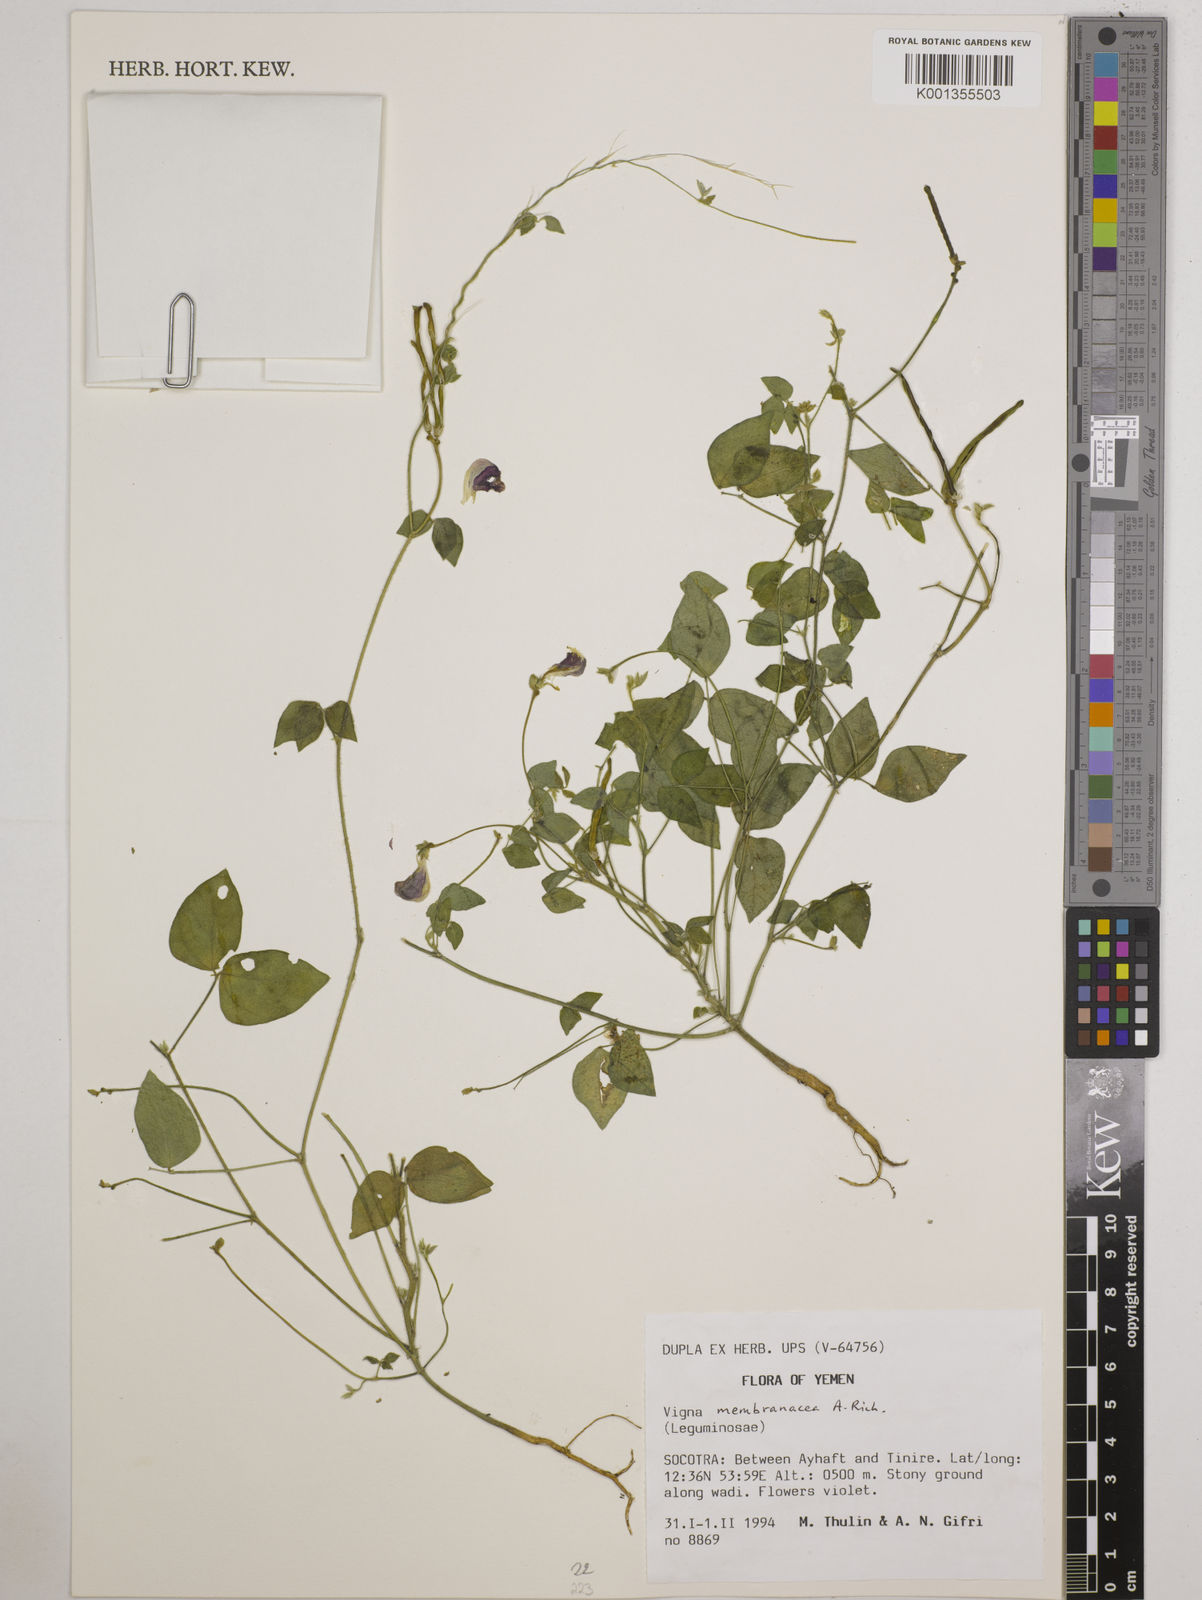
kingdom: Plantae
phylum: Tracheophyta
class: Magnoliopsida
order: Fabales
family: Fabaceae
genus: Vigna
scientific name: Vigna membranacea
